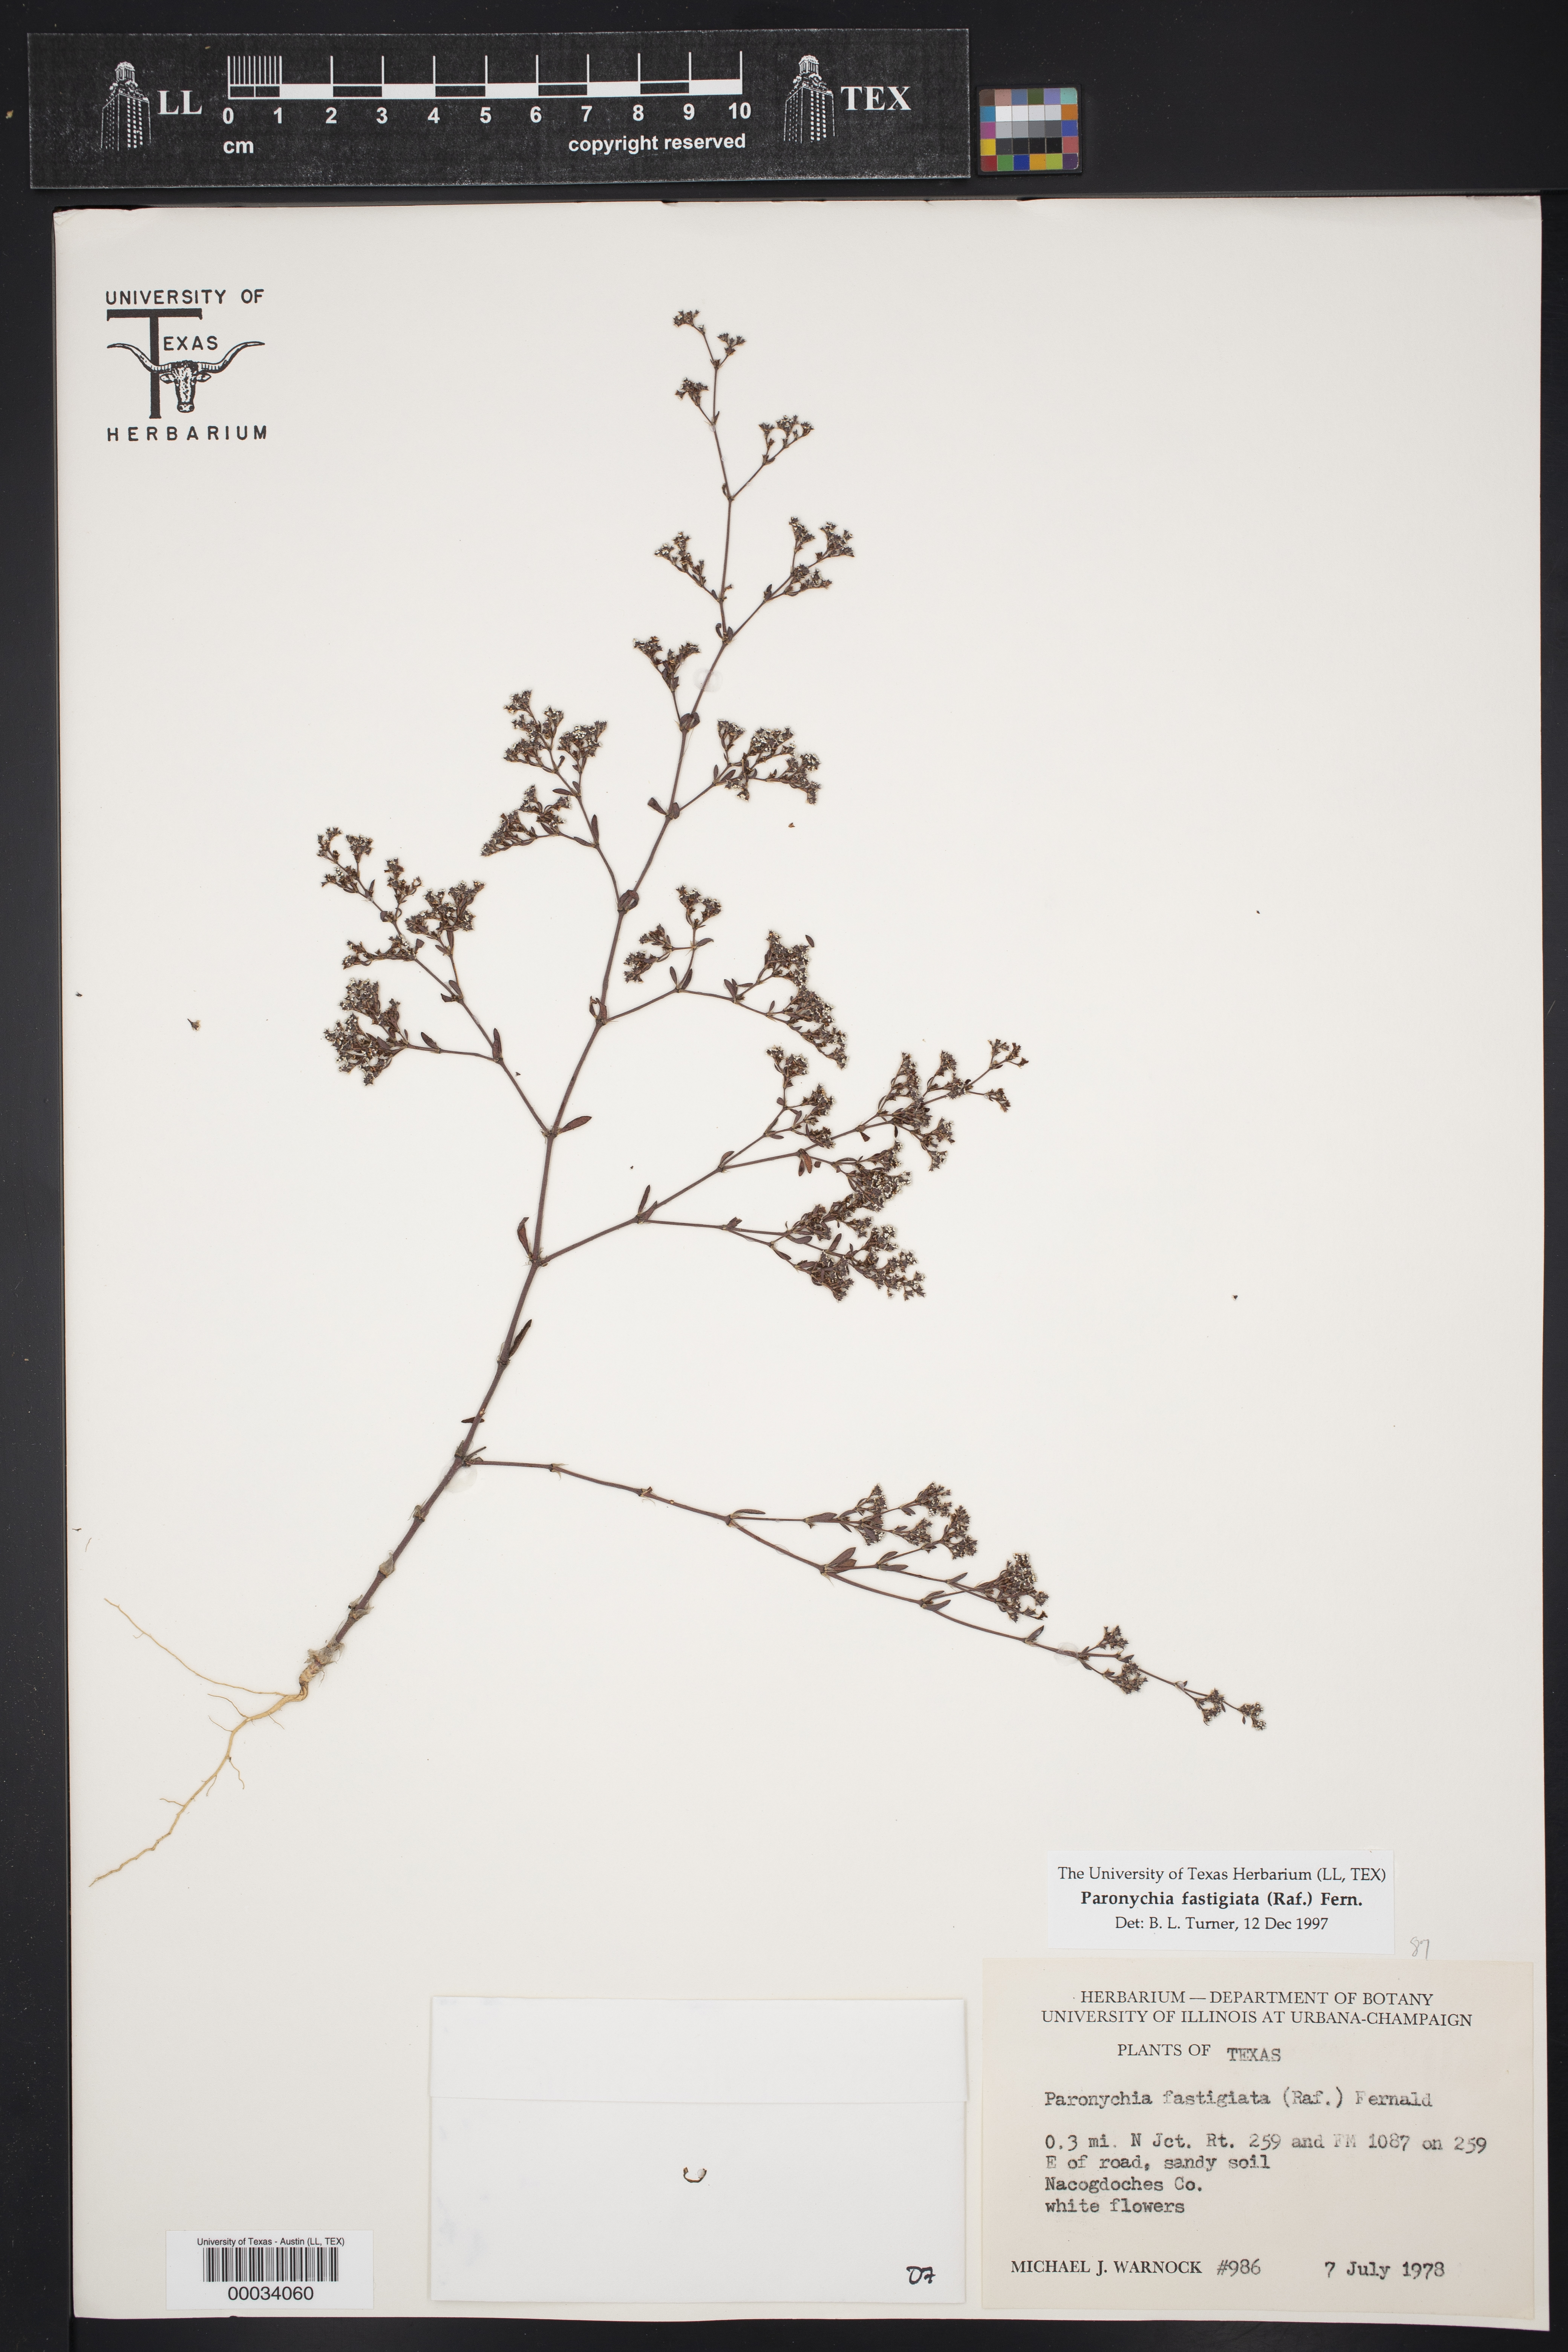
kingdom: Plantae
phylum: Tracheophyta
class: Magnoliopsida
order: Caryophyllales
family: Caryophyllaceae
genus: Paronychia
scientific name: Paronychia fastigiata
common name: Branching forked whitlow-wort
